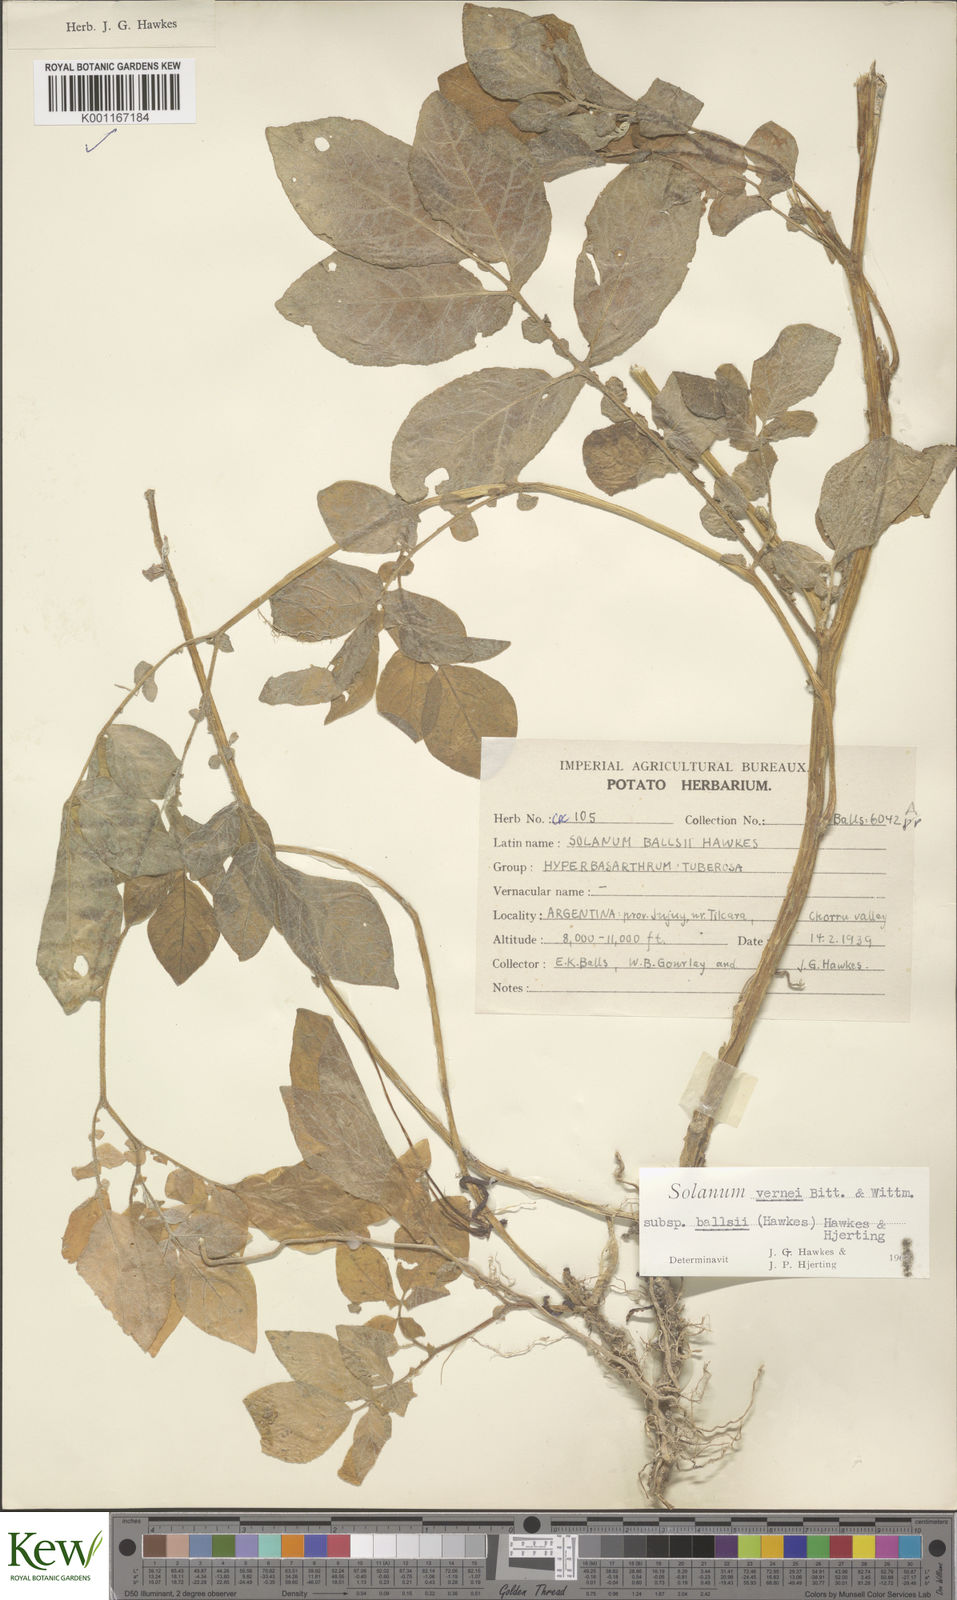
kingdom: Plantae
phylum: Tracheophyta
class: Magnoliopsida
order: Solanales
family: Solanaceae
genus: Solanum
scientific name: Solanum vernei
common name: Purple potato
